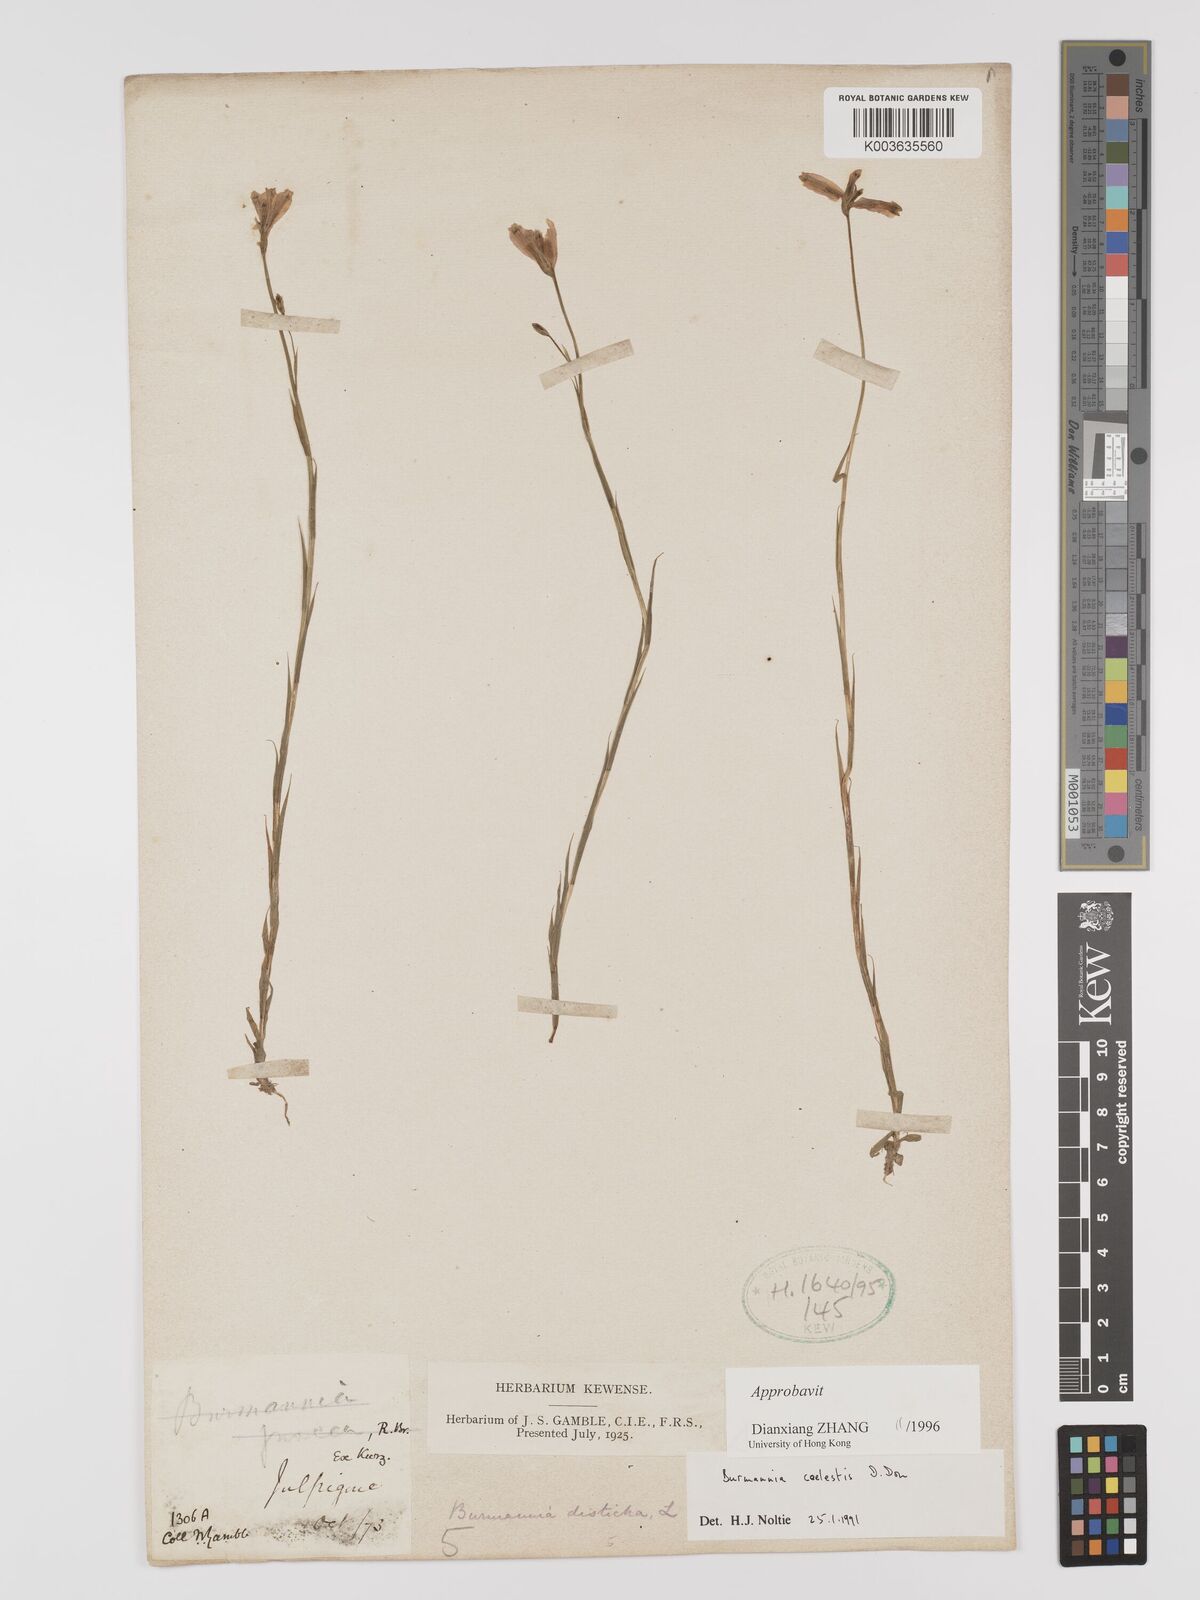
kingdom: Plantae
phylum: Tracheophyta
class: Liliopsida
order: Dioscoreales
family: Burmanniaceae
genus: Burmannia
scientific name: Burmannia coelestis
